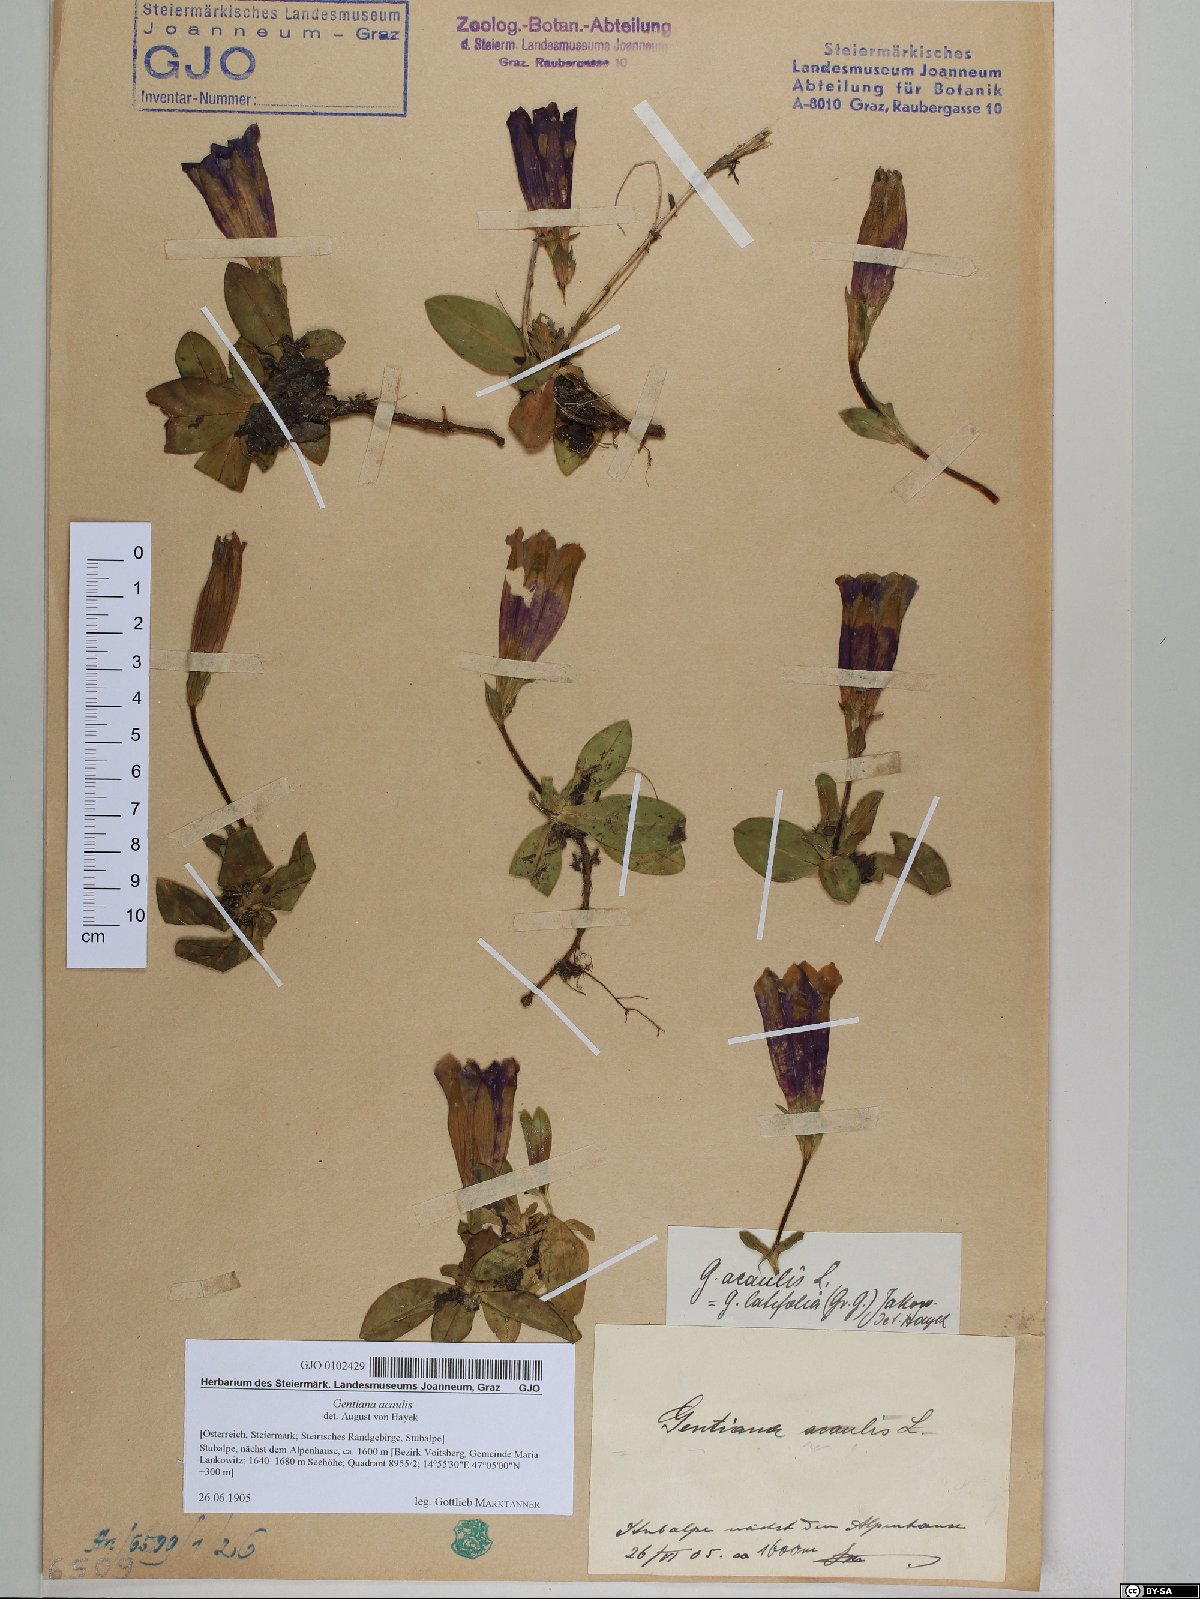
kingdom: Plantae
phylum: Tracheophyta
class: Magnoliopsida
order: Gentianales
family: Gentianaceae
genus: Gentiana
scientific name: Gentiana acaulis
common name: Trumpet gentian
